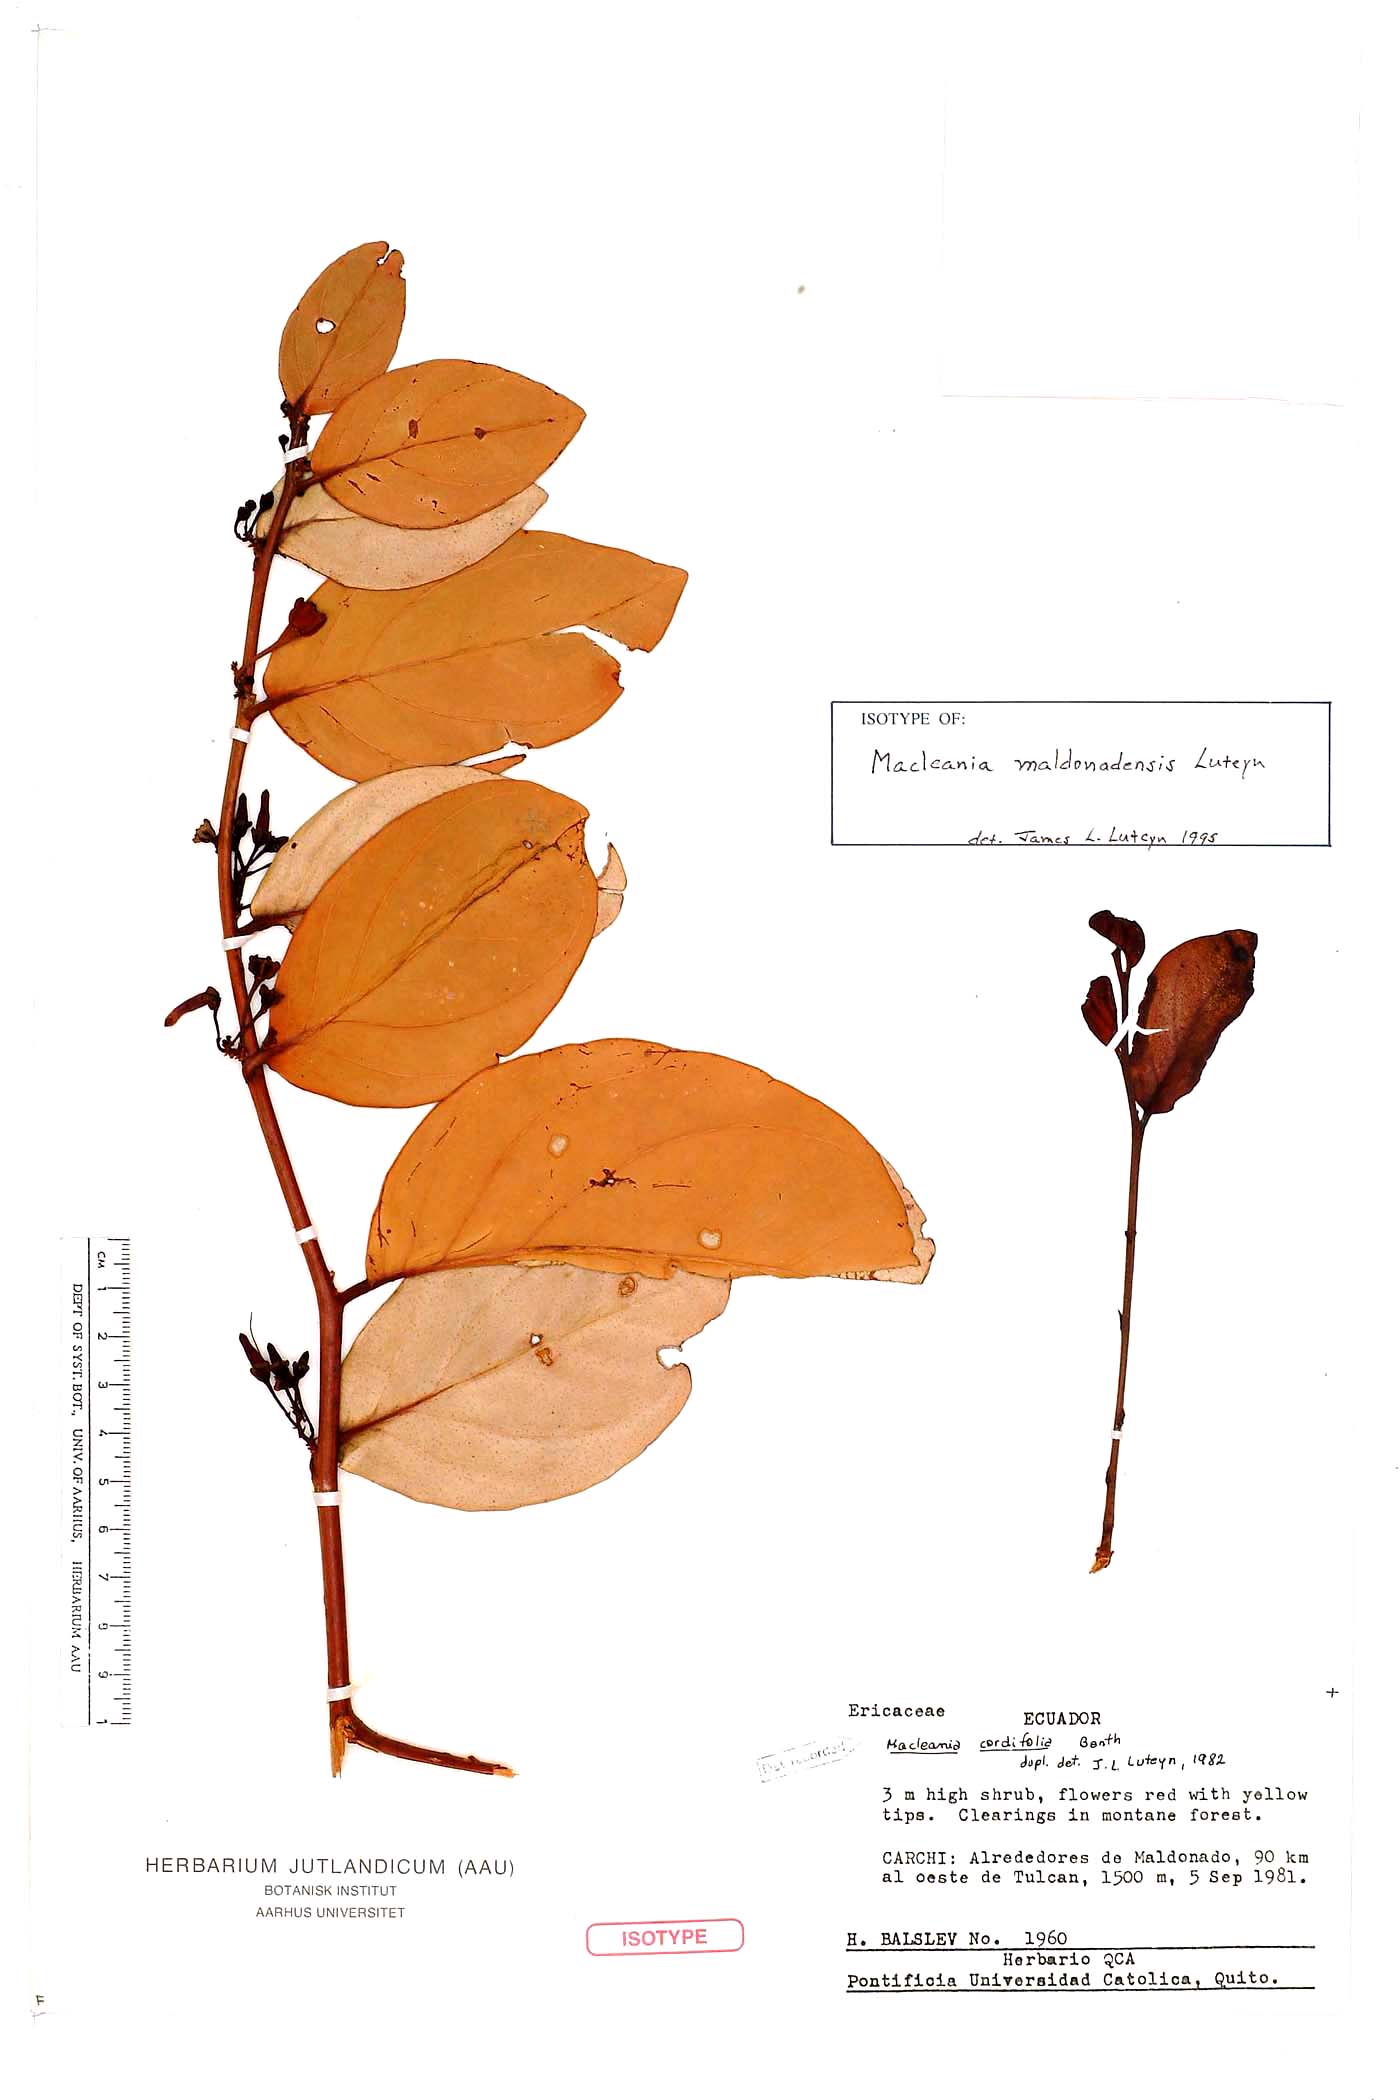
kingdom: Plantae
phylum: Tracheophyta
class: Magnoliopsida
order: Ericales
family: Ericaceae
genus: Macleania
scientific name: Macleania maldonadensis
